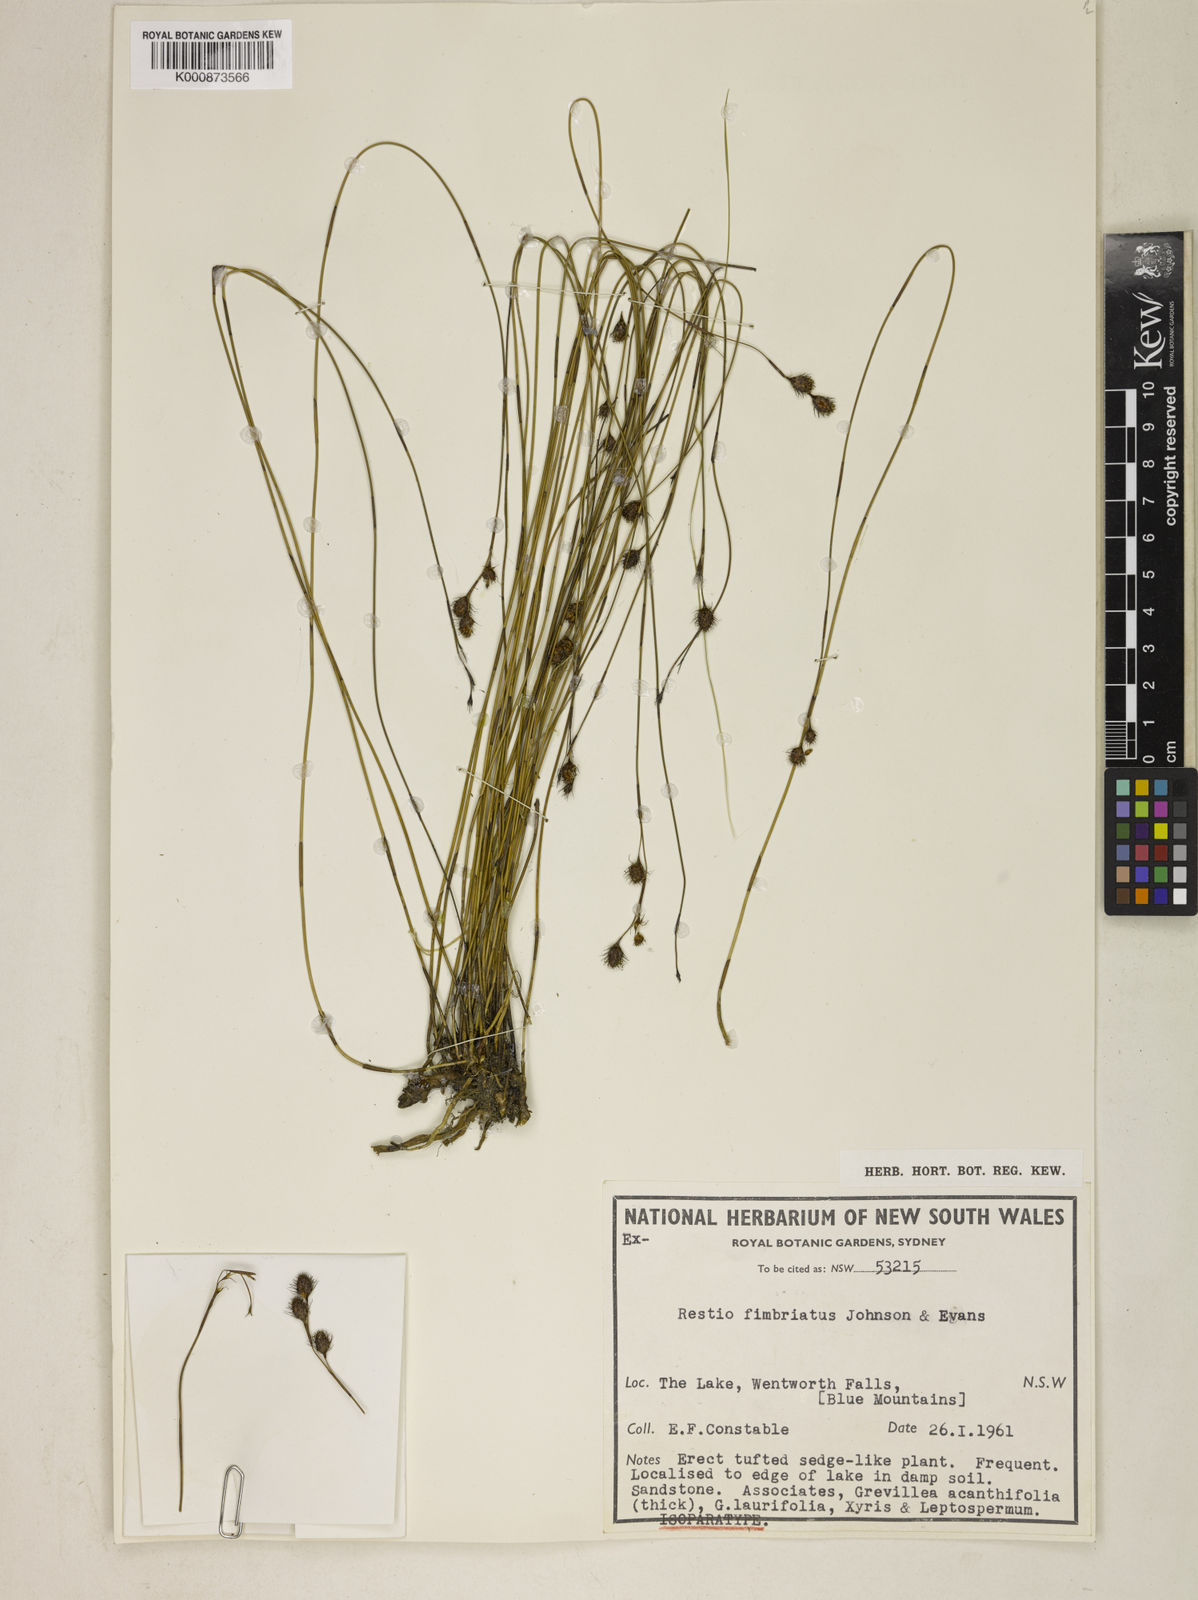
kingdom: Plantae
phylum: Tracheophyta
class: Liliopsida
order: Poales
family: Restionaceae
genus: Baloskion
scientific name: Baloskion fimbriatum
